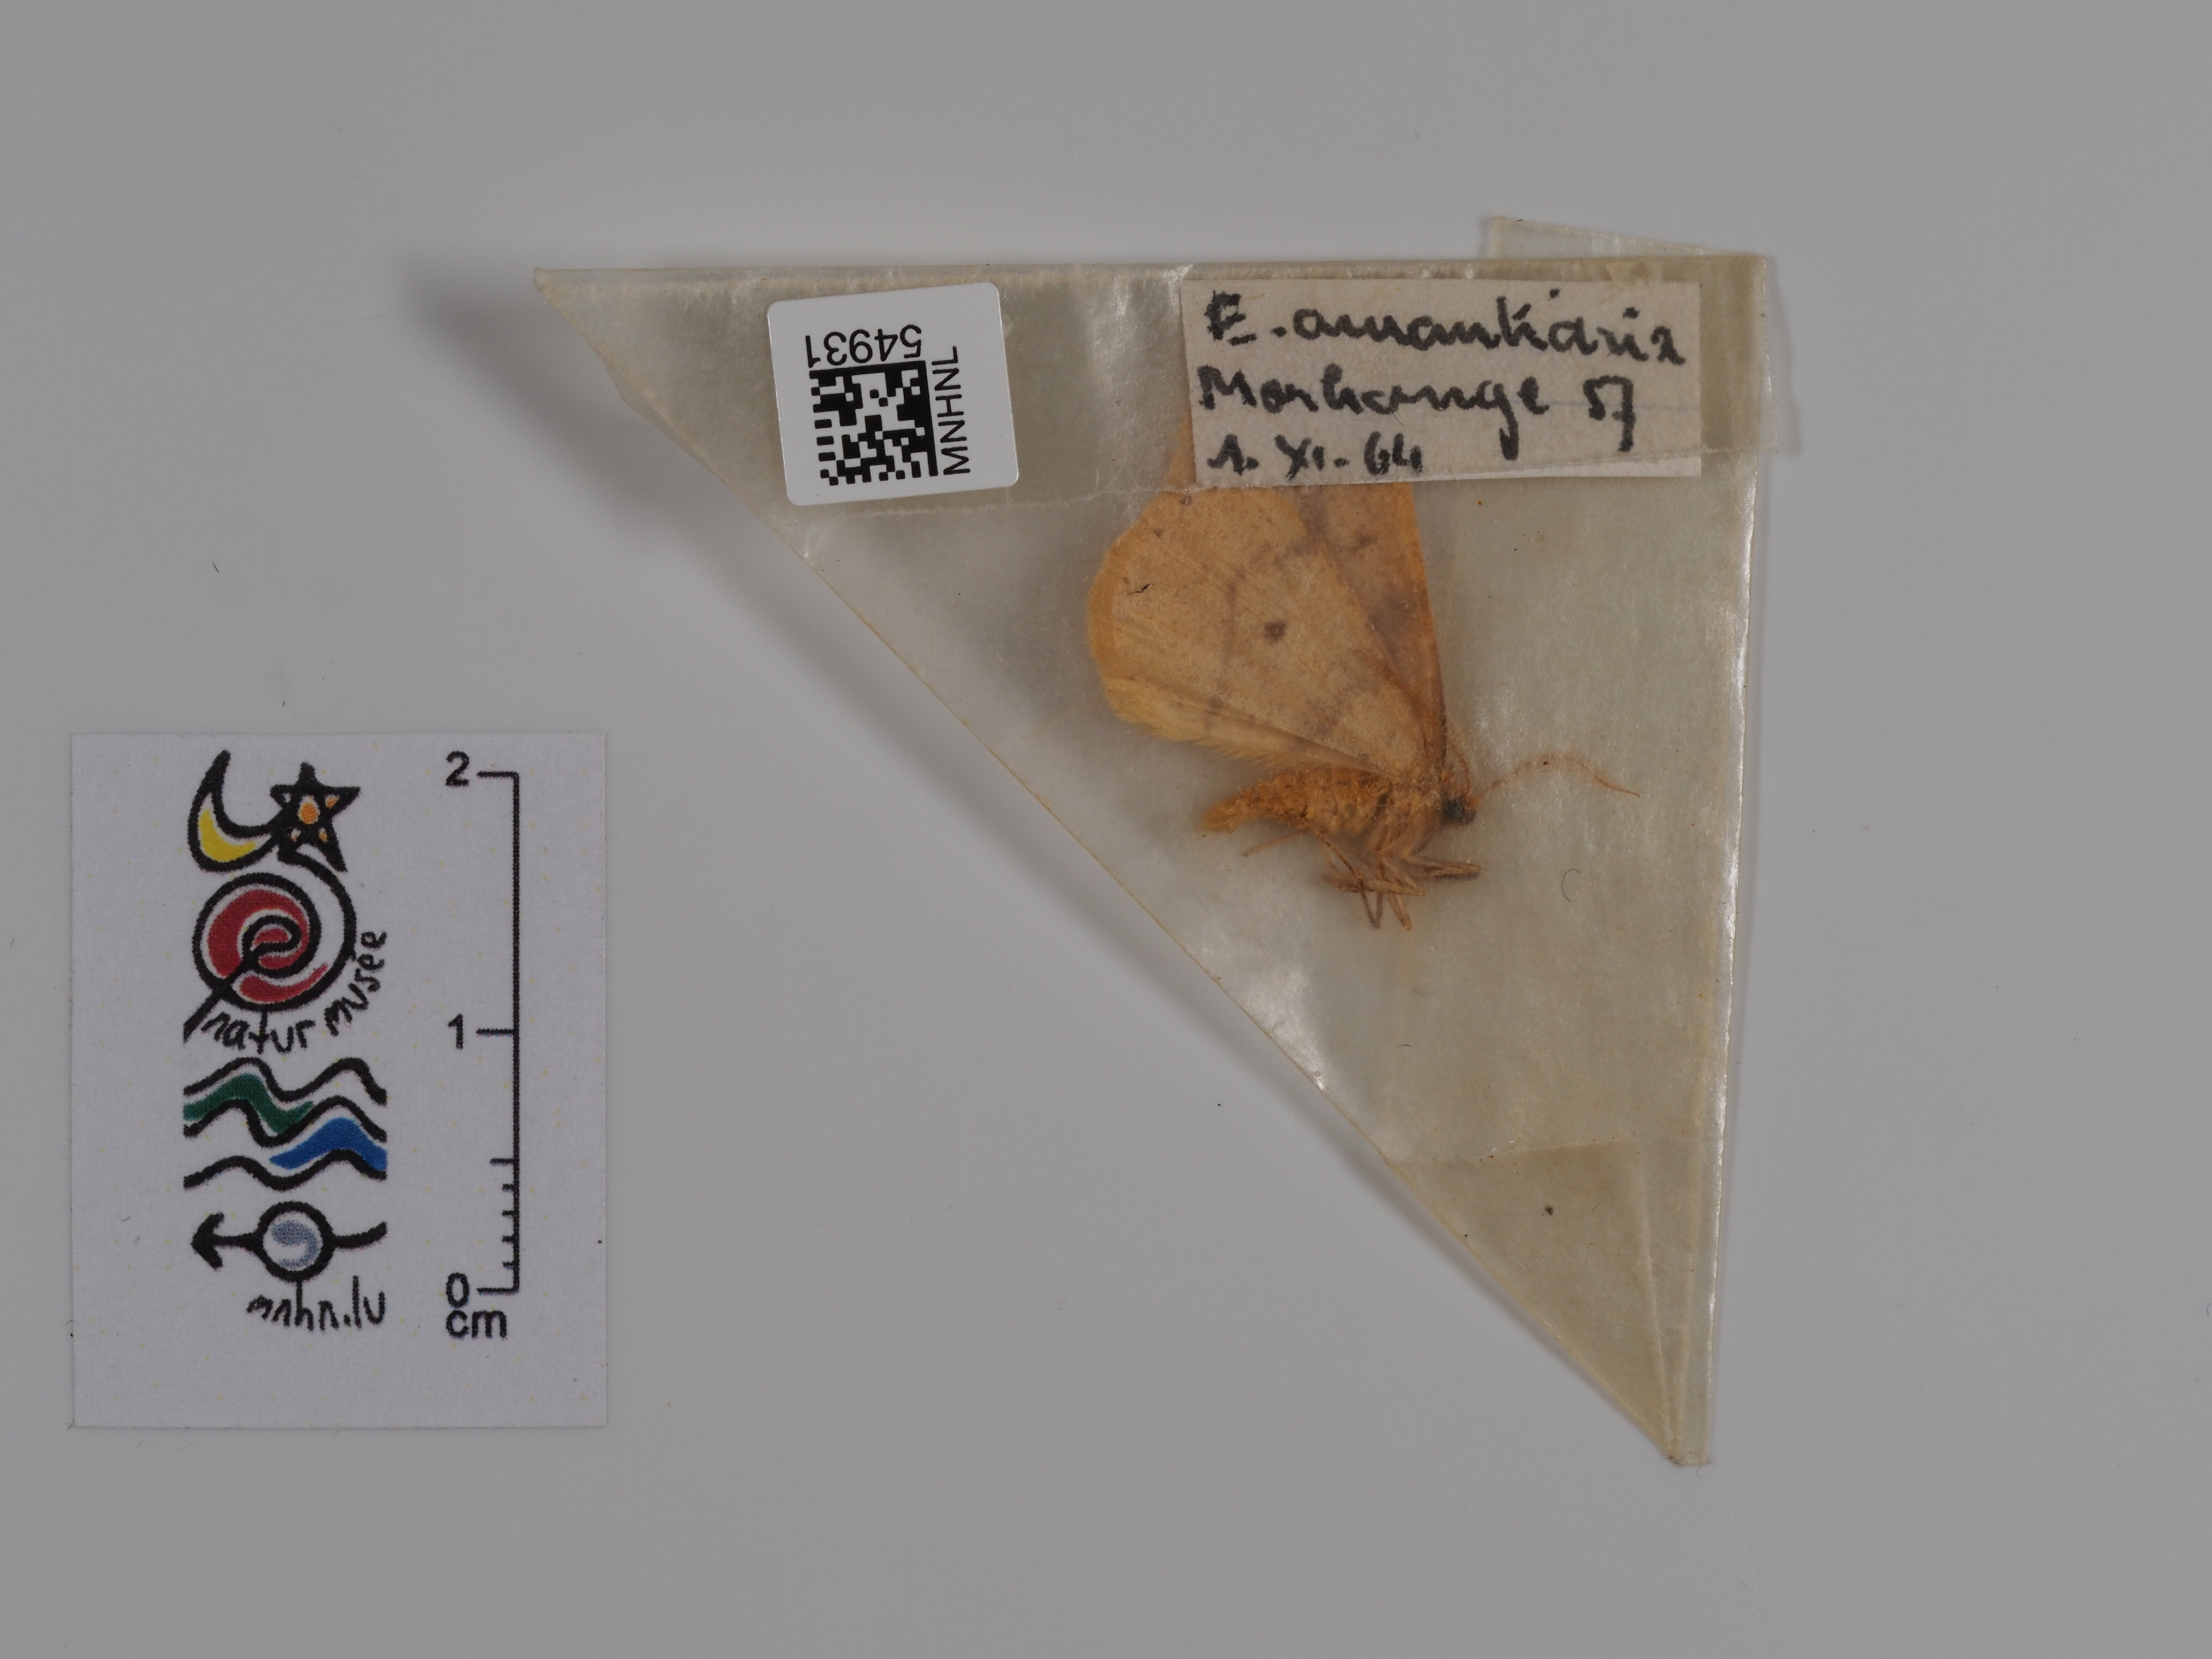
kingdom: Animalia
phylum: Arthropoda
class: Insecta
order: Lepidoptera
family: Geometridae
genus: Erannis
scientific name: Erannis
